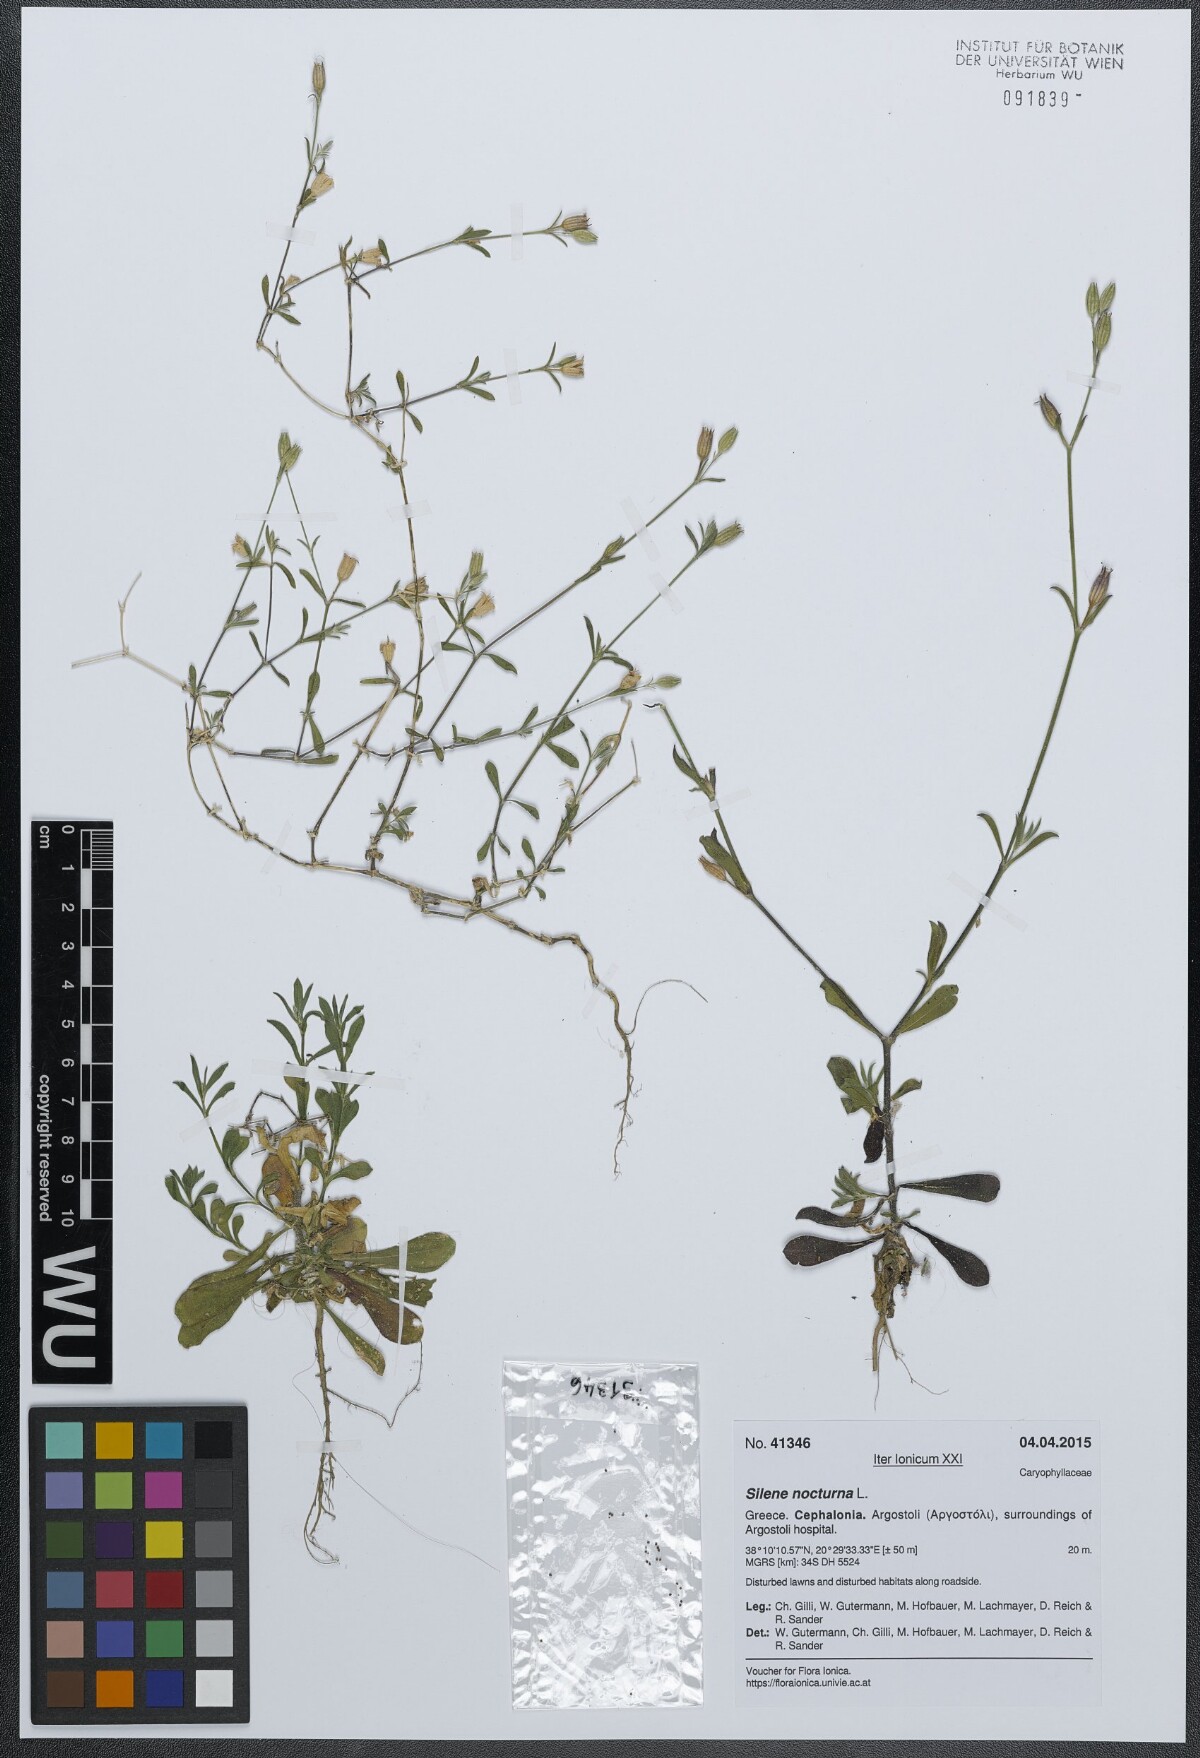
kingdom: Plantae
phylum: Tracheophyta
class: Magnoliopsida
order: Caryophyllales
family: Caryophyllaceae
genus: Silene
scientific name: Silene nocturna
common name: Mediterranean catchfly
